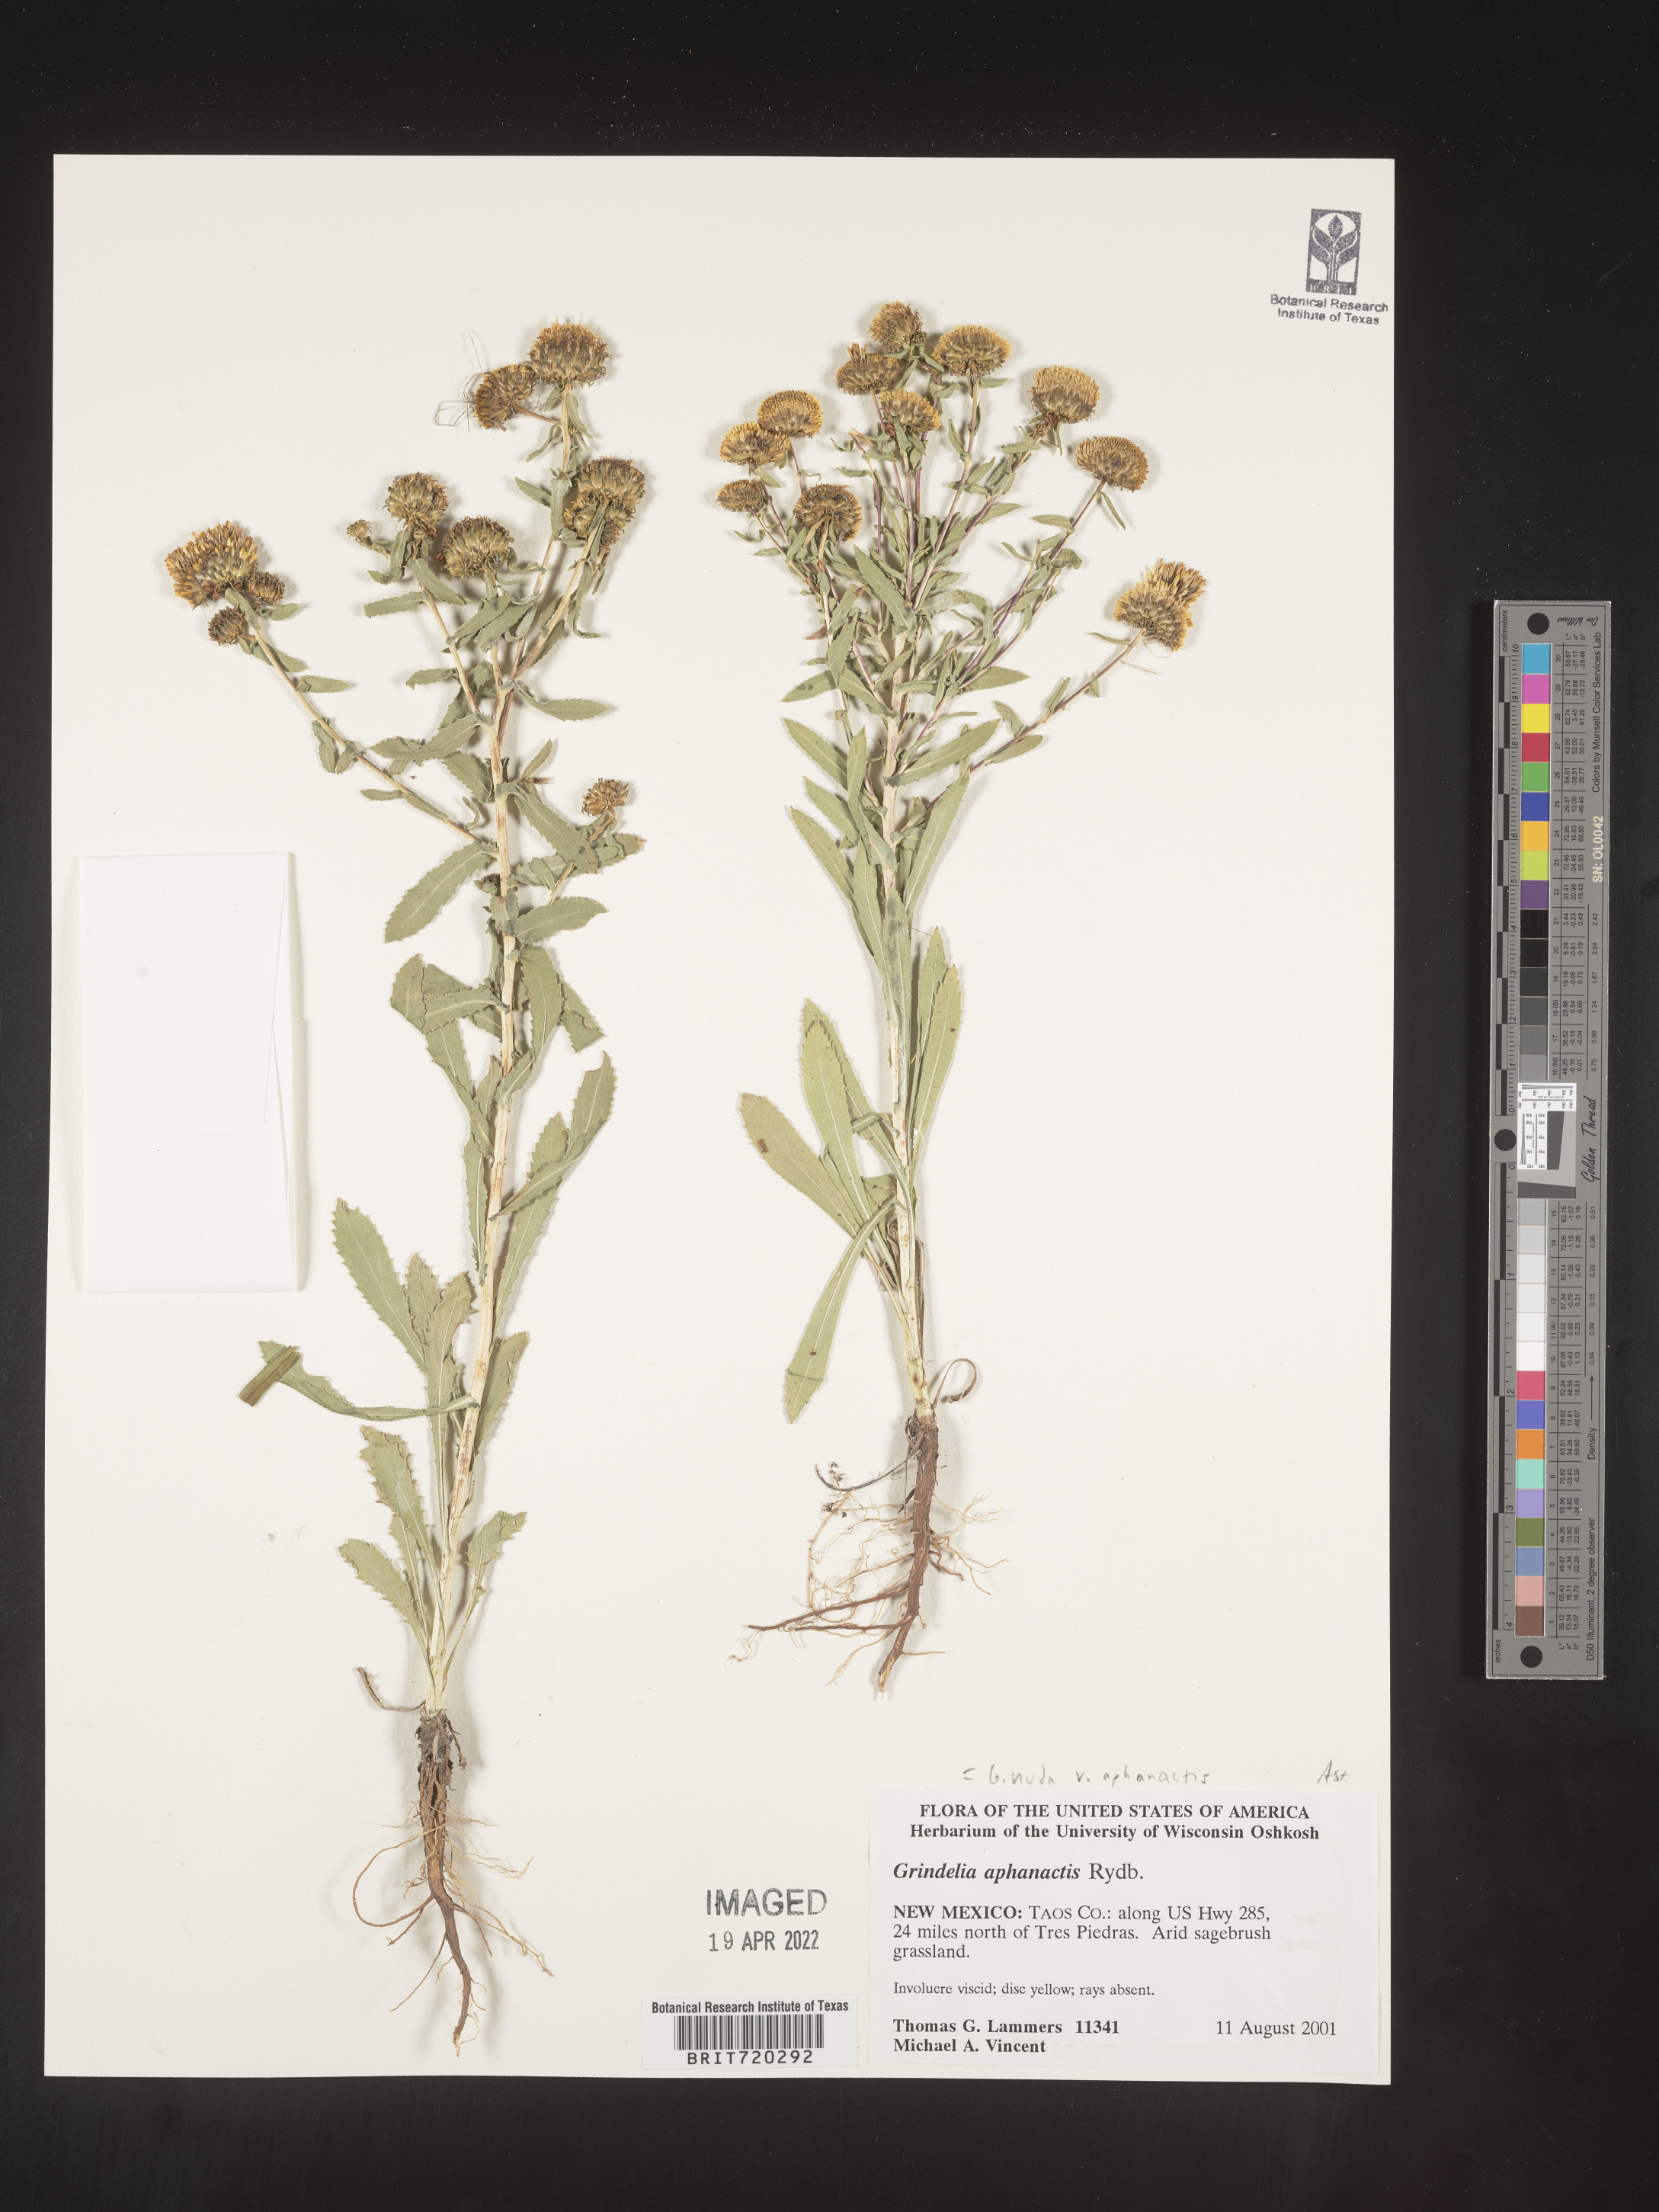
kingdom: Plantae
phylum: Tracheophyta
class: Magnoliopsida
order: Asterales
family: Asteraceae
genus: Grindelia
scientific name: Grindelia nuda
